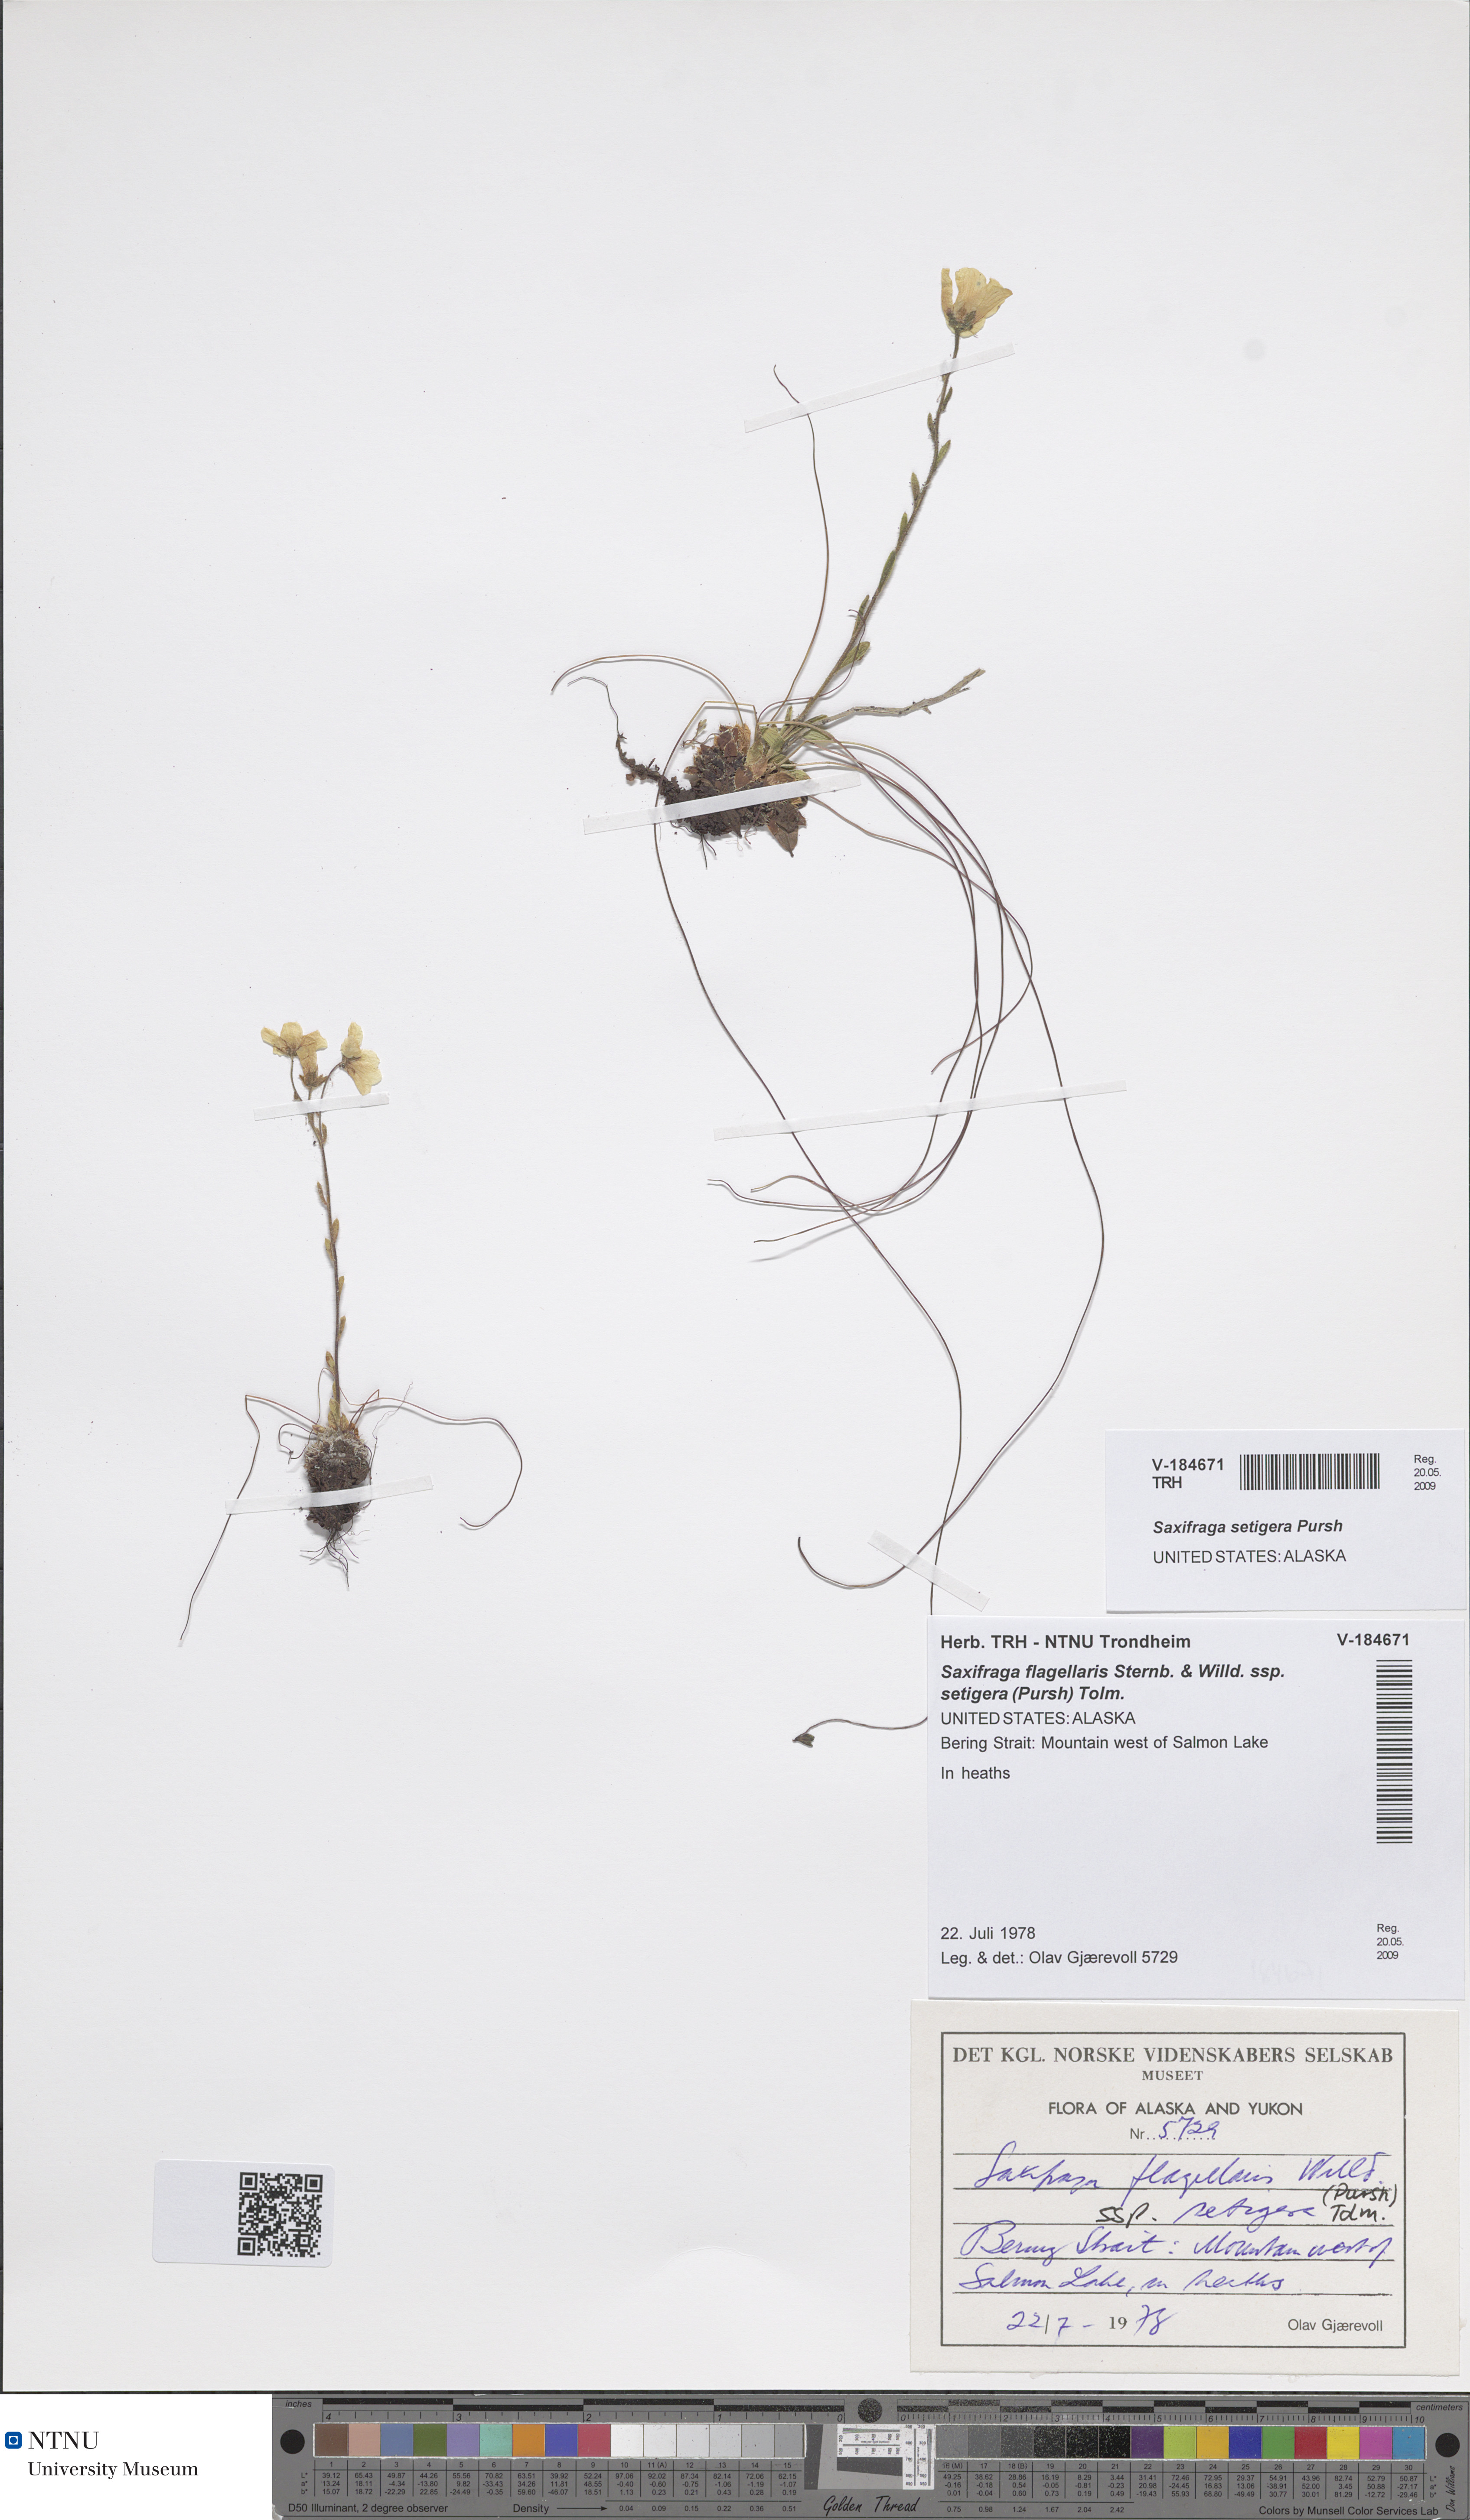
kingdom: Plantae
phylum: Tracheophyta
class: Magnoliopsida
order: Saxifragales
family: Saxifragaceae
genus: Saxifraga
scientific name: Saxifraga flagellaris
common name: Spider saxifrage
